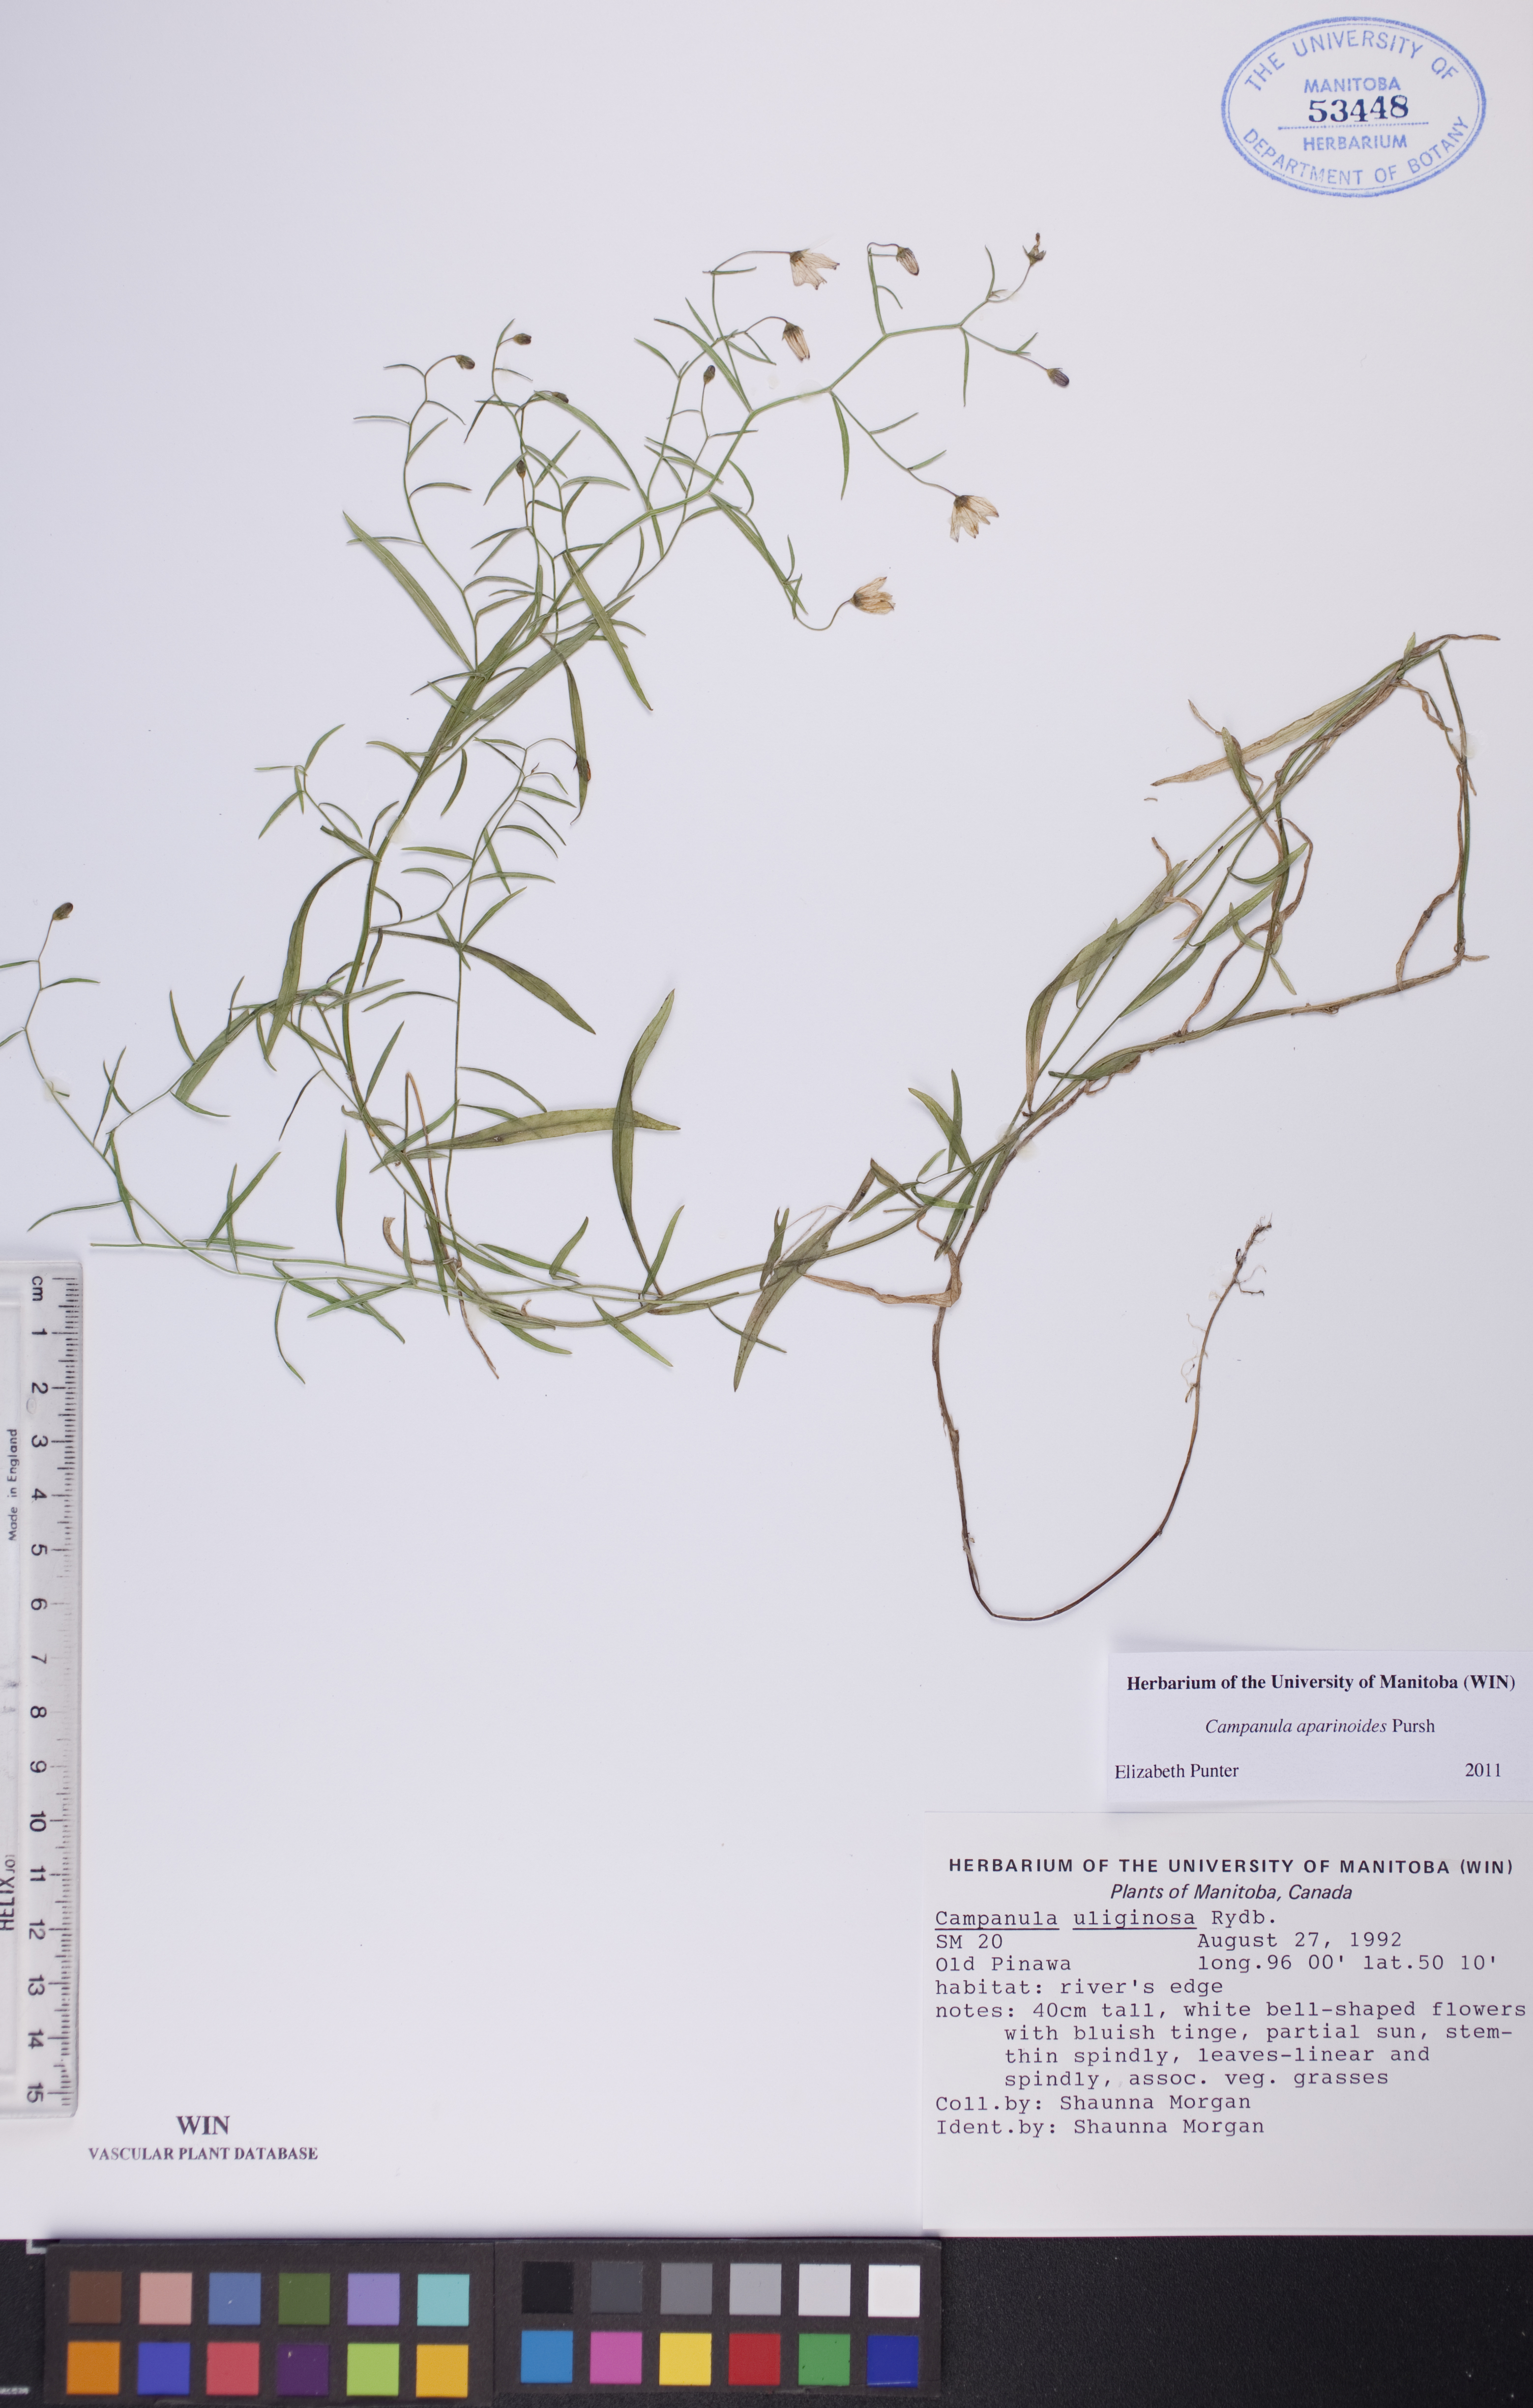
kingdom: Plantae
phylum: Tracheophyta
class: Magnoliopsida
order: Asterales
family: Campanulaceae
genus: Palustricodon
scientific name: Palustricodon aparinoides
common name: Bedstraw bellflower
